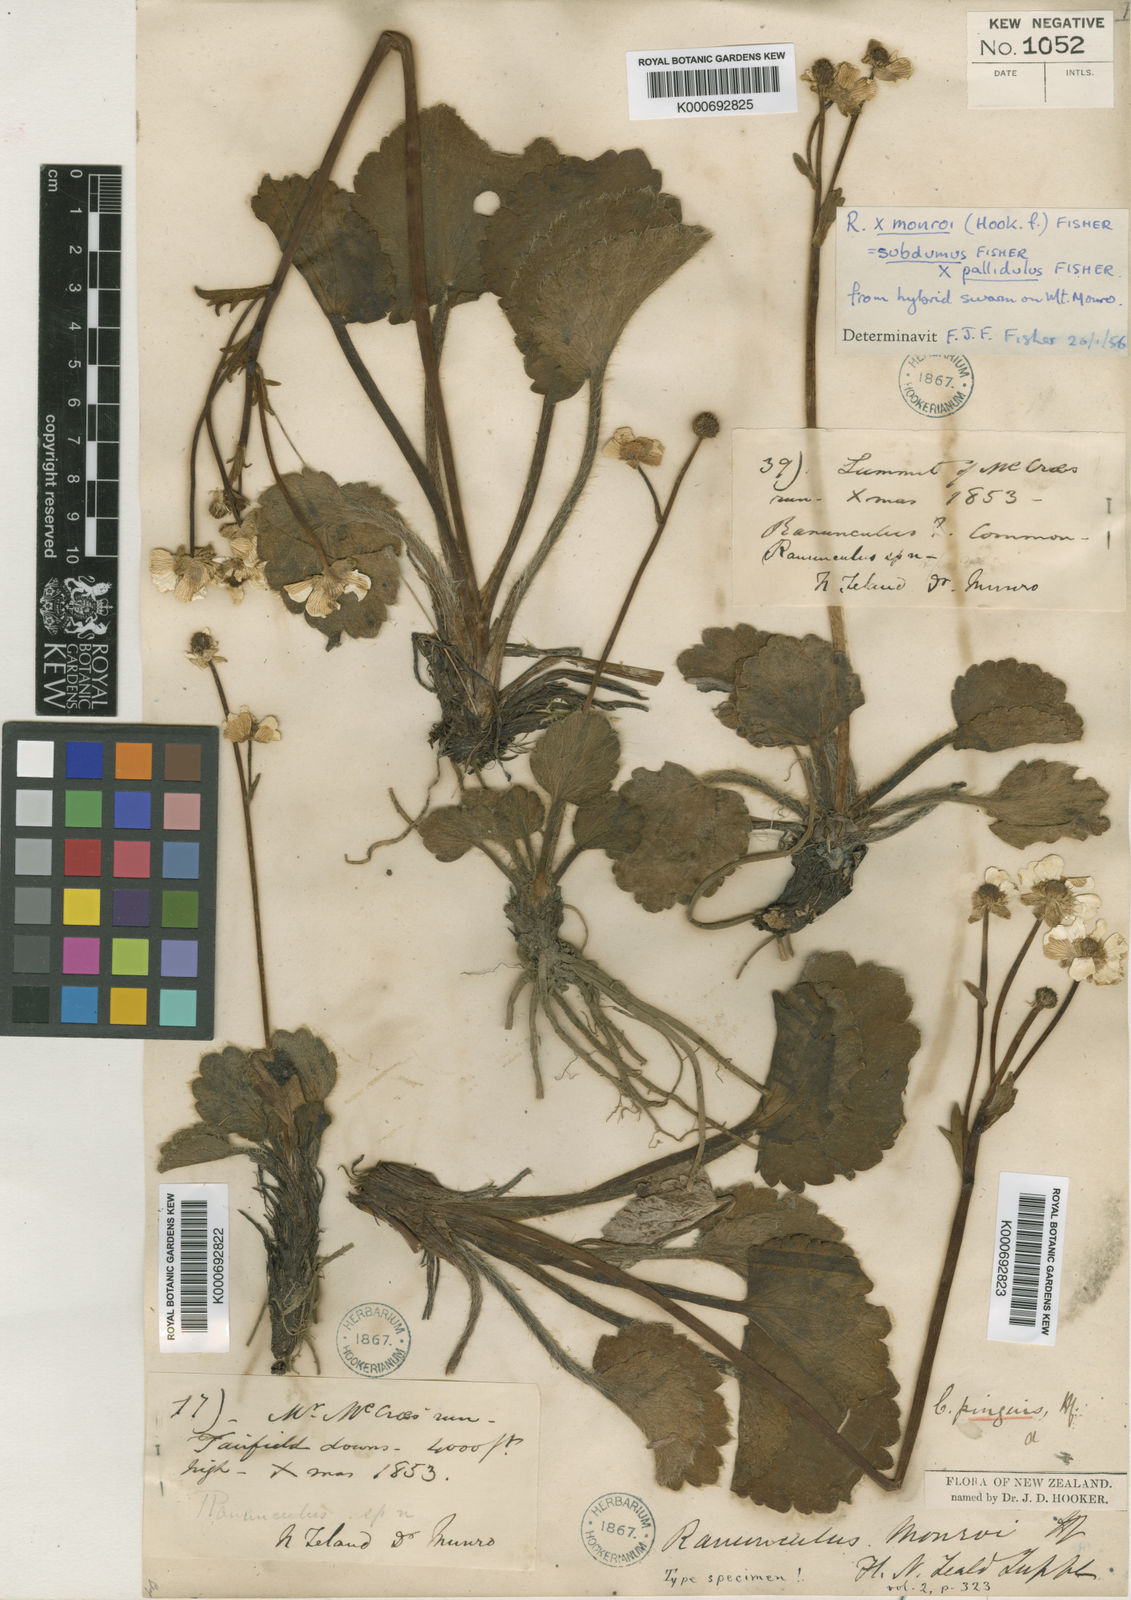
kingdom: Plantae
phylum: Tracheophyta
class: Magnoliopsida
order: Ranunculales
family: Ranunculaceae
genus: Ranunculus
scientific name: Ranunculus
